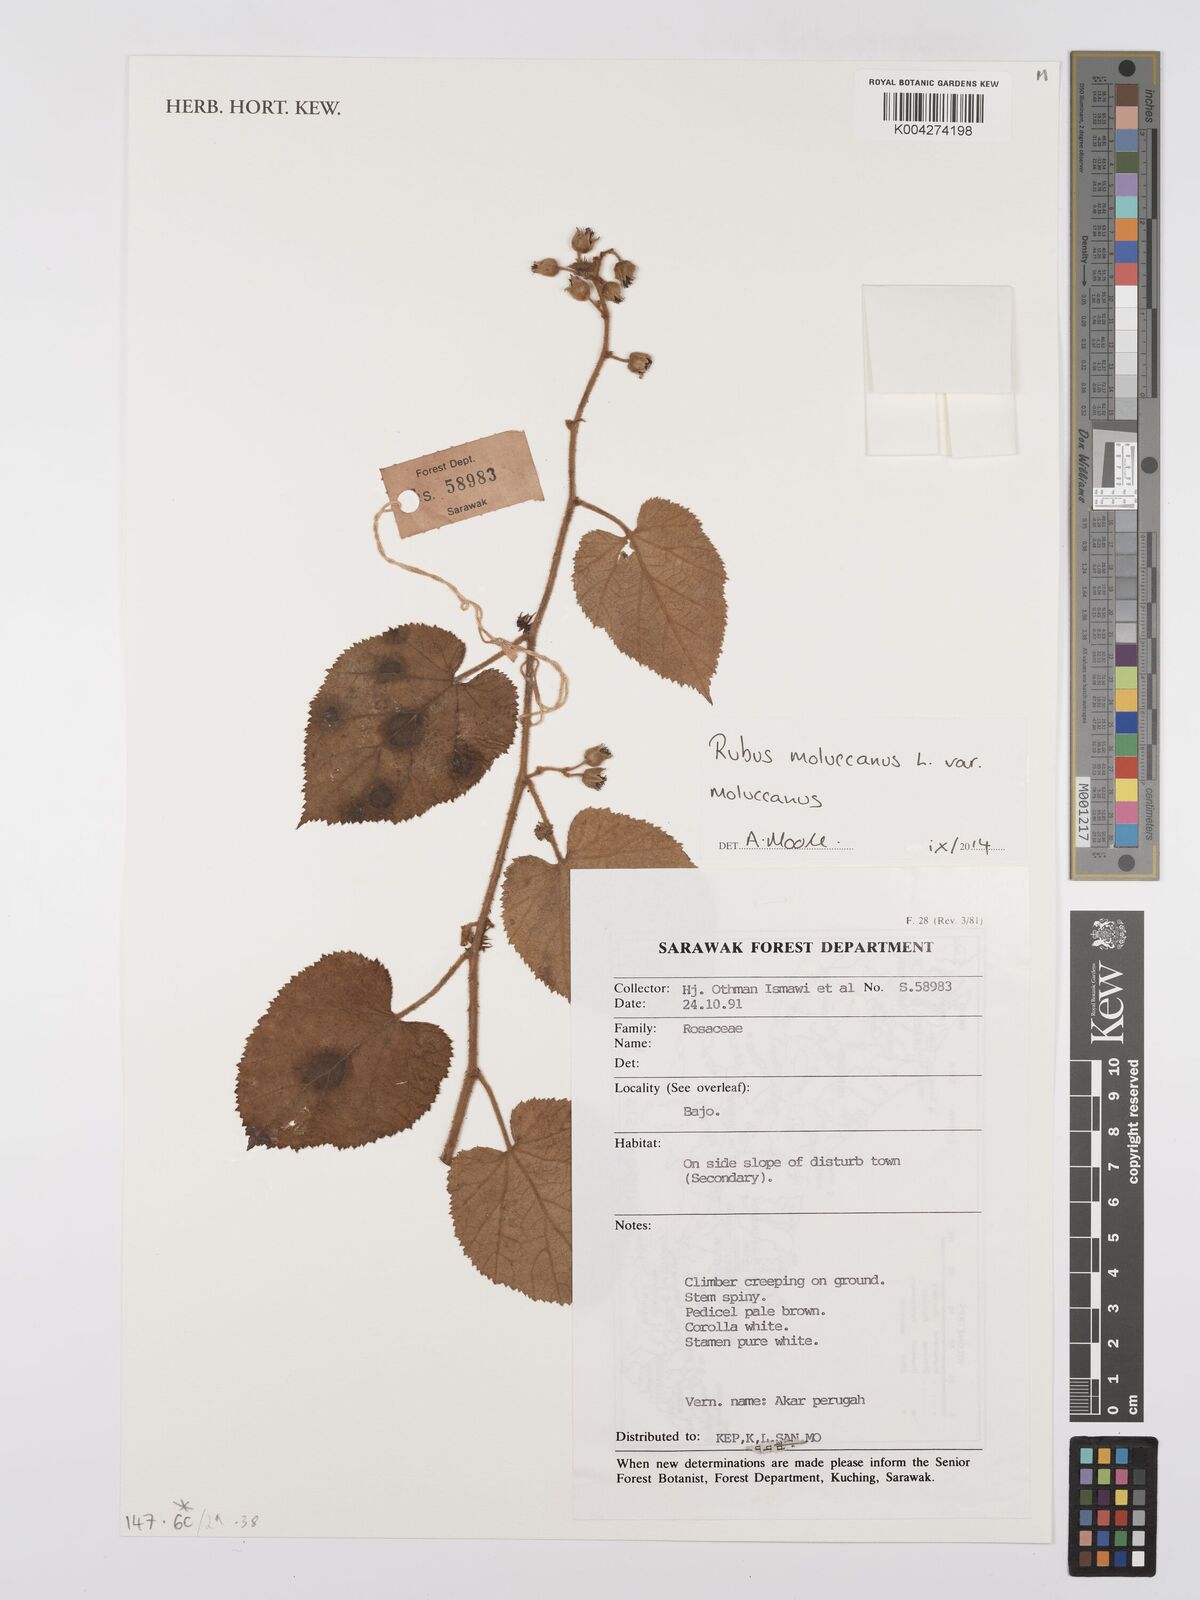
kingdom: Plantae
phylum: Tracheophyta
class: Magnoliopsida
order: Rosales
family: Rosaceae
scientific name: Rosaceae
